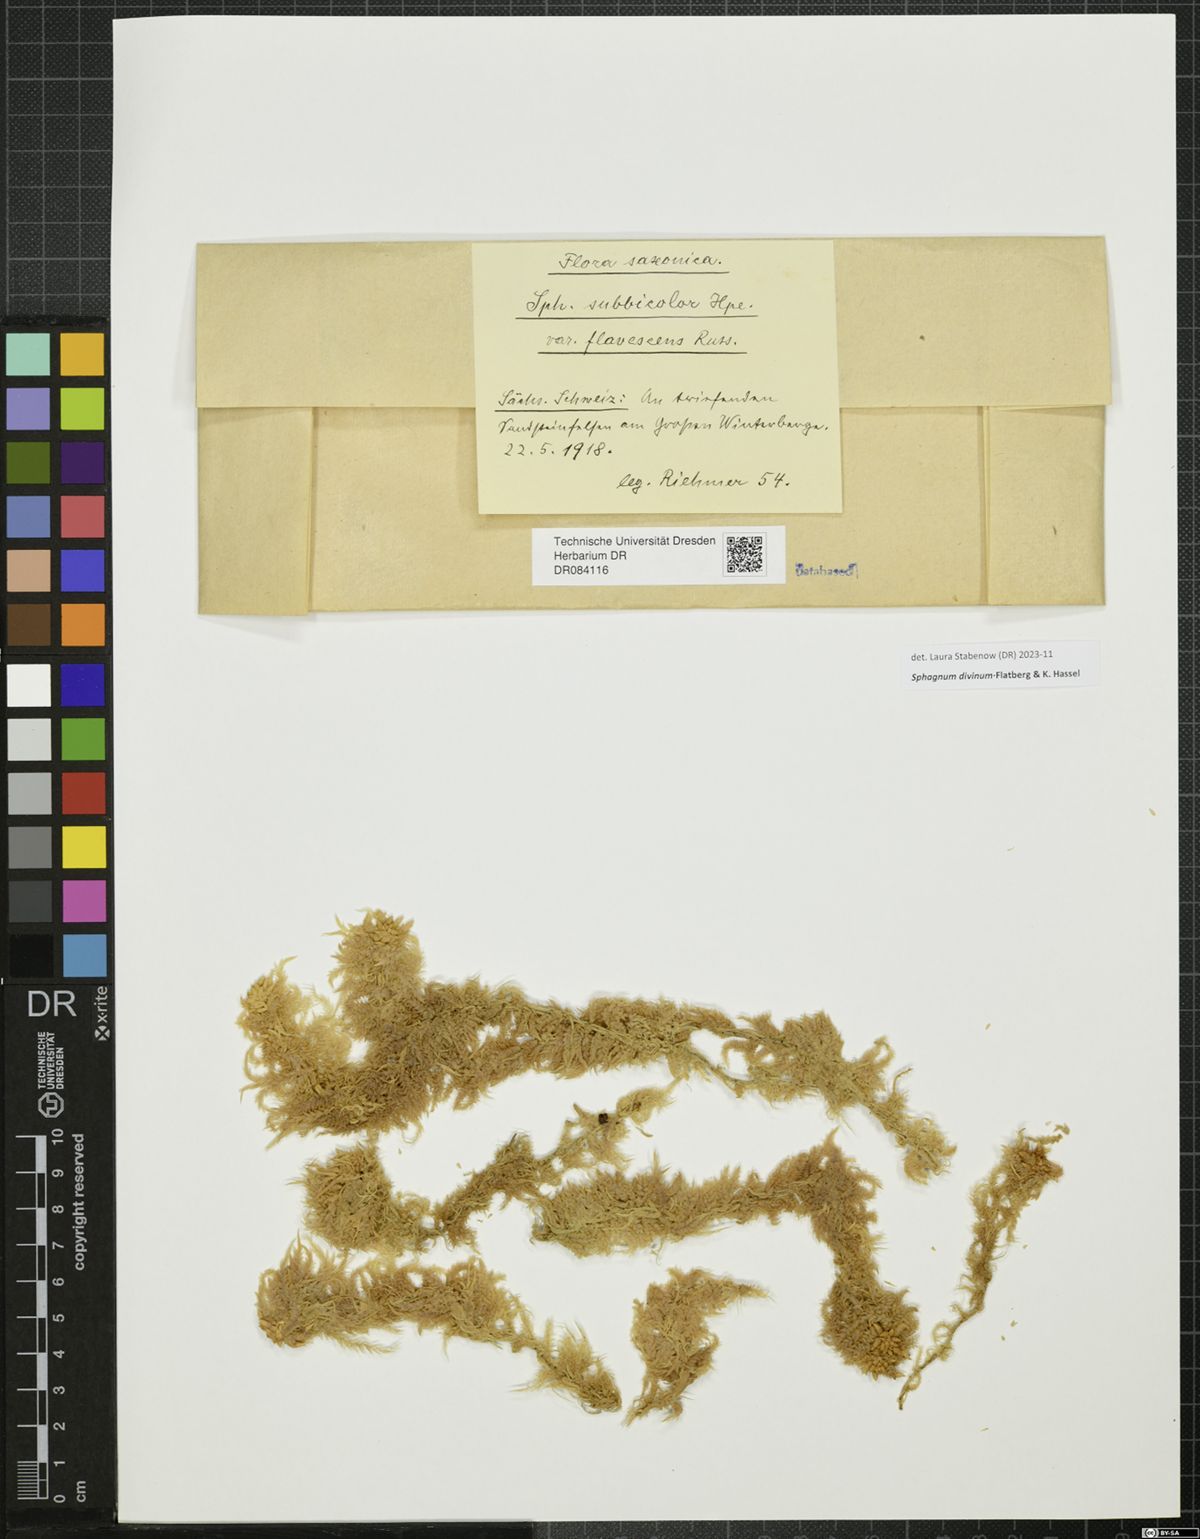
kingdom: Plantae
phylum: Bryophyta
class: Sphagnopsida
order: Sphagnales
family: Sphagnaceae
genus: Sphagnum
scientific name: Sphagnum divinum
